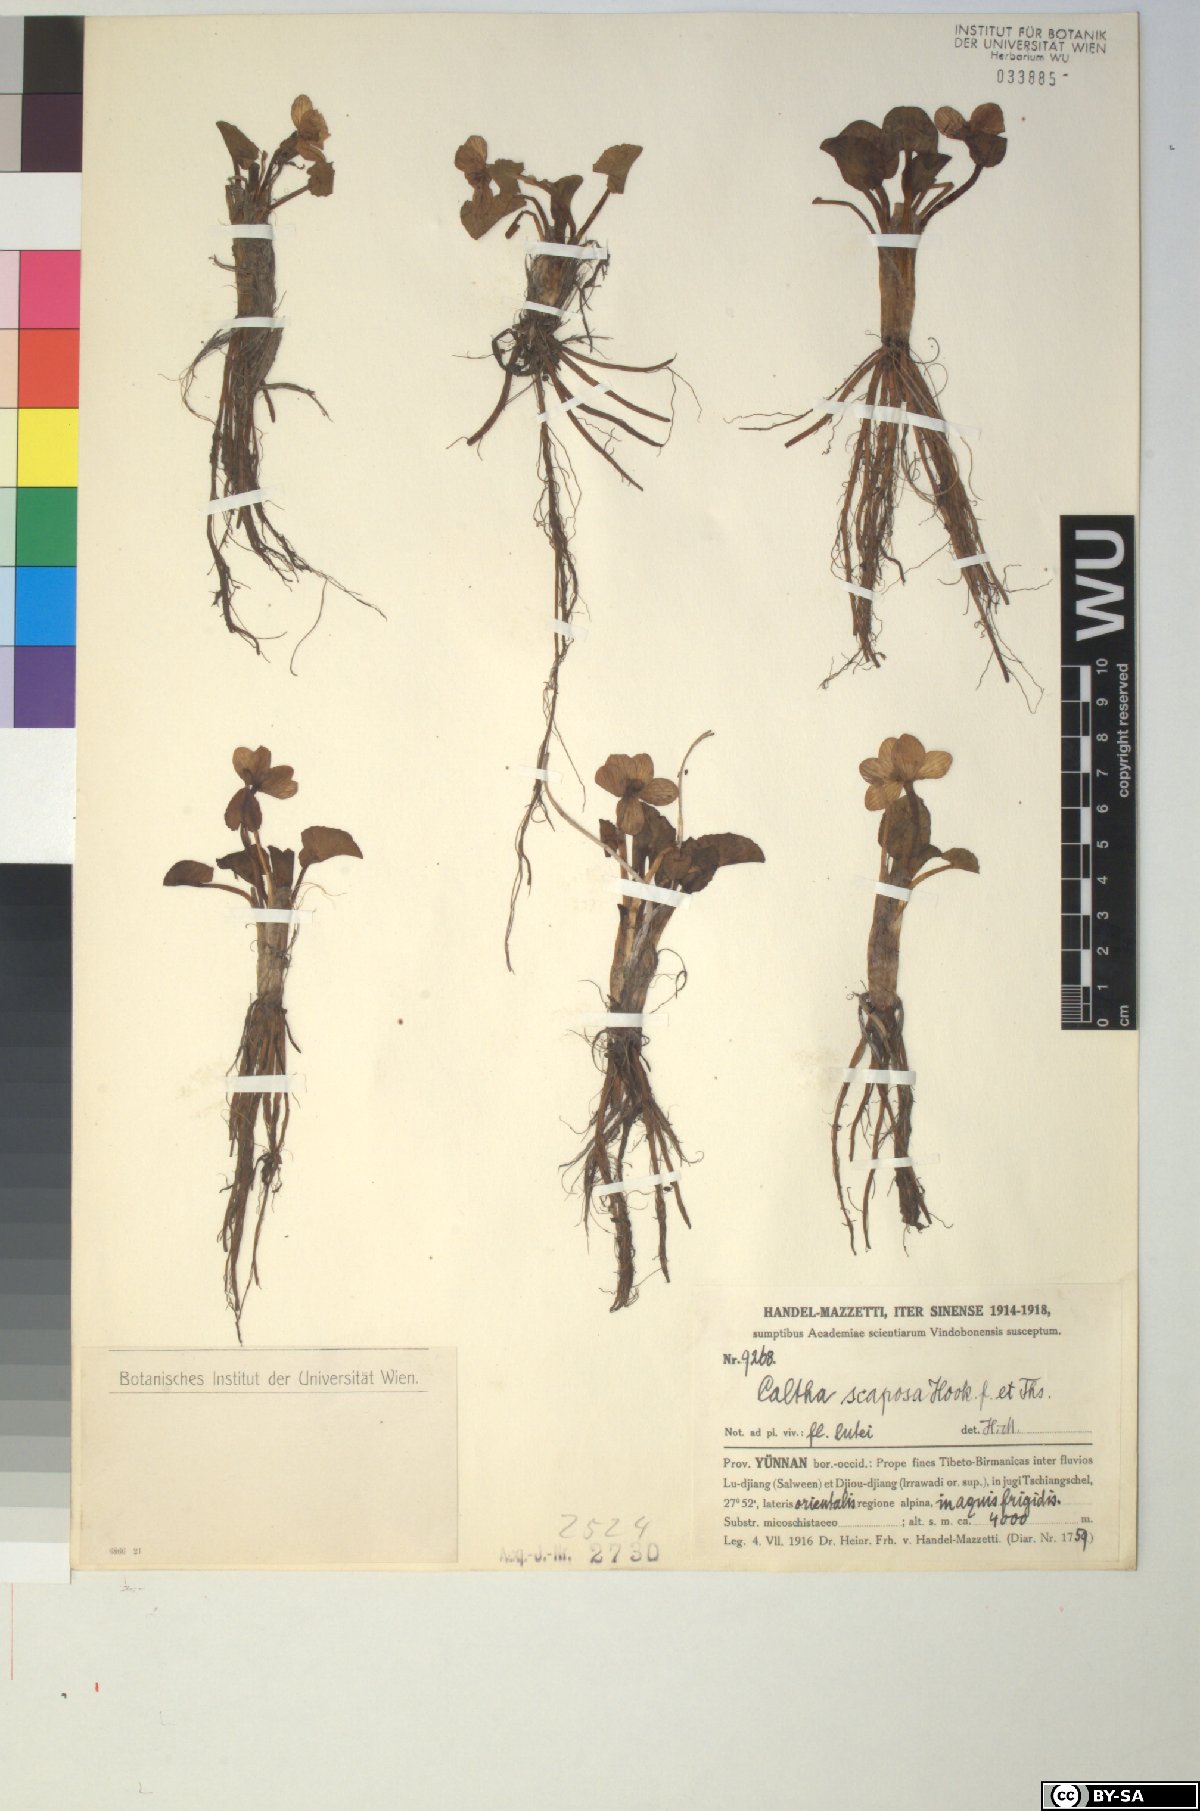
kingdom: Plantae
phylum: Tracheophyta
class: Magnoliopsida
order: Ranunculales
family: Ranunculaceae
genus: Caltha
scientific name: Caltha scaposa
